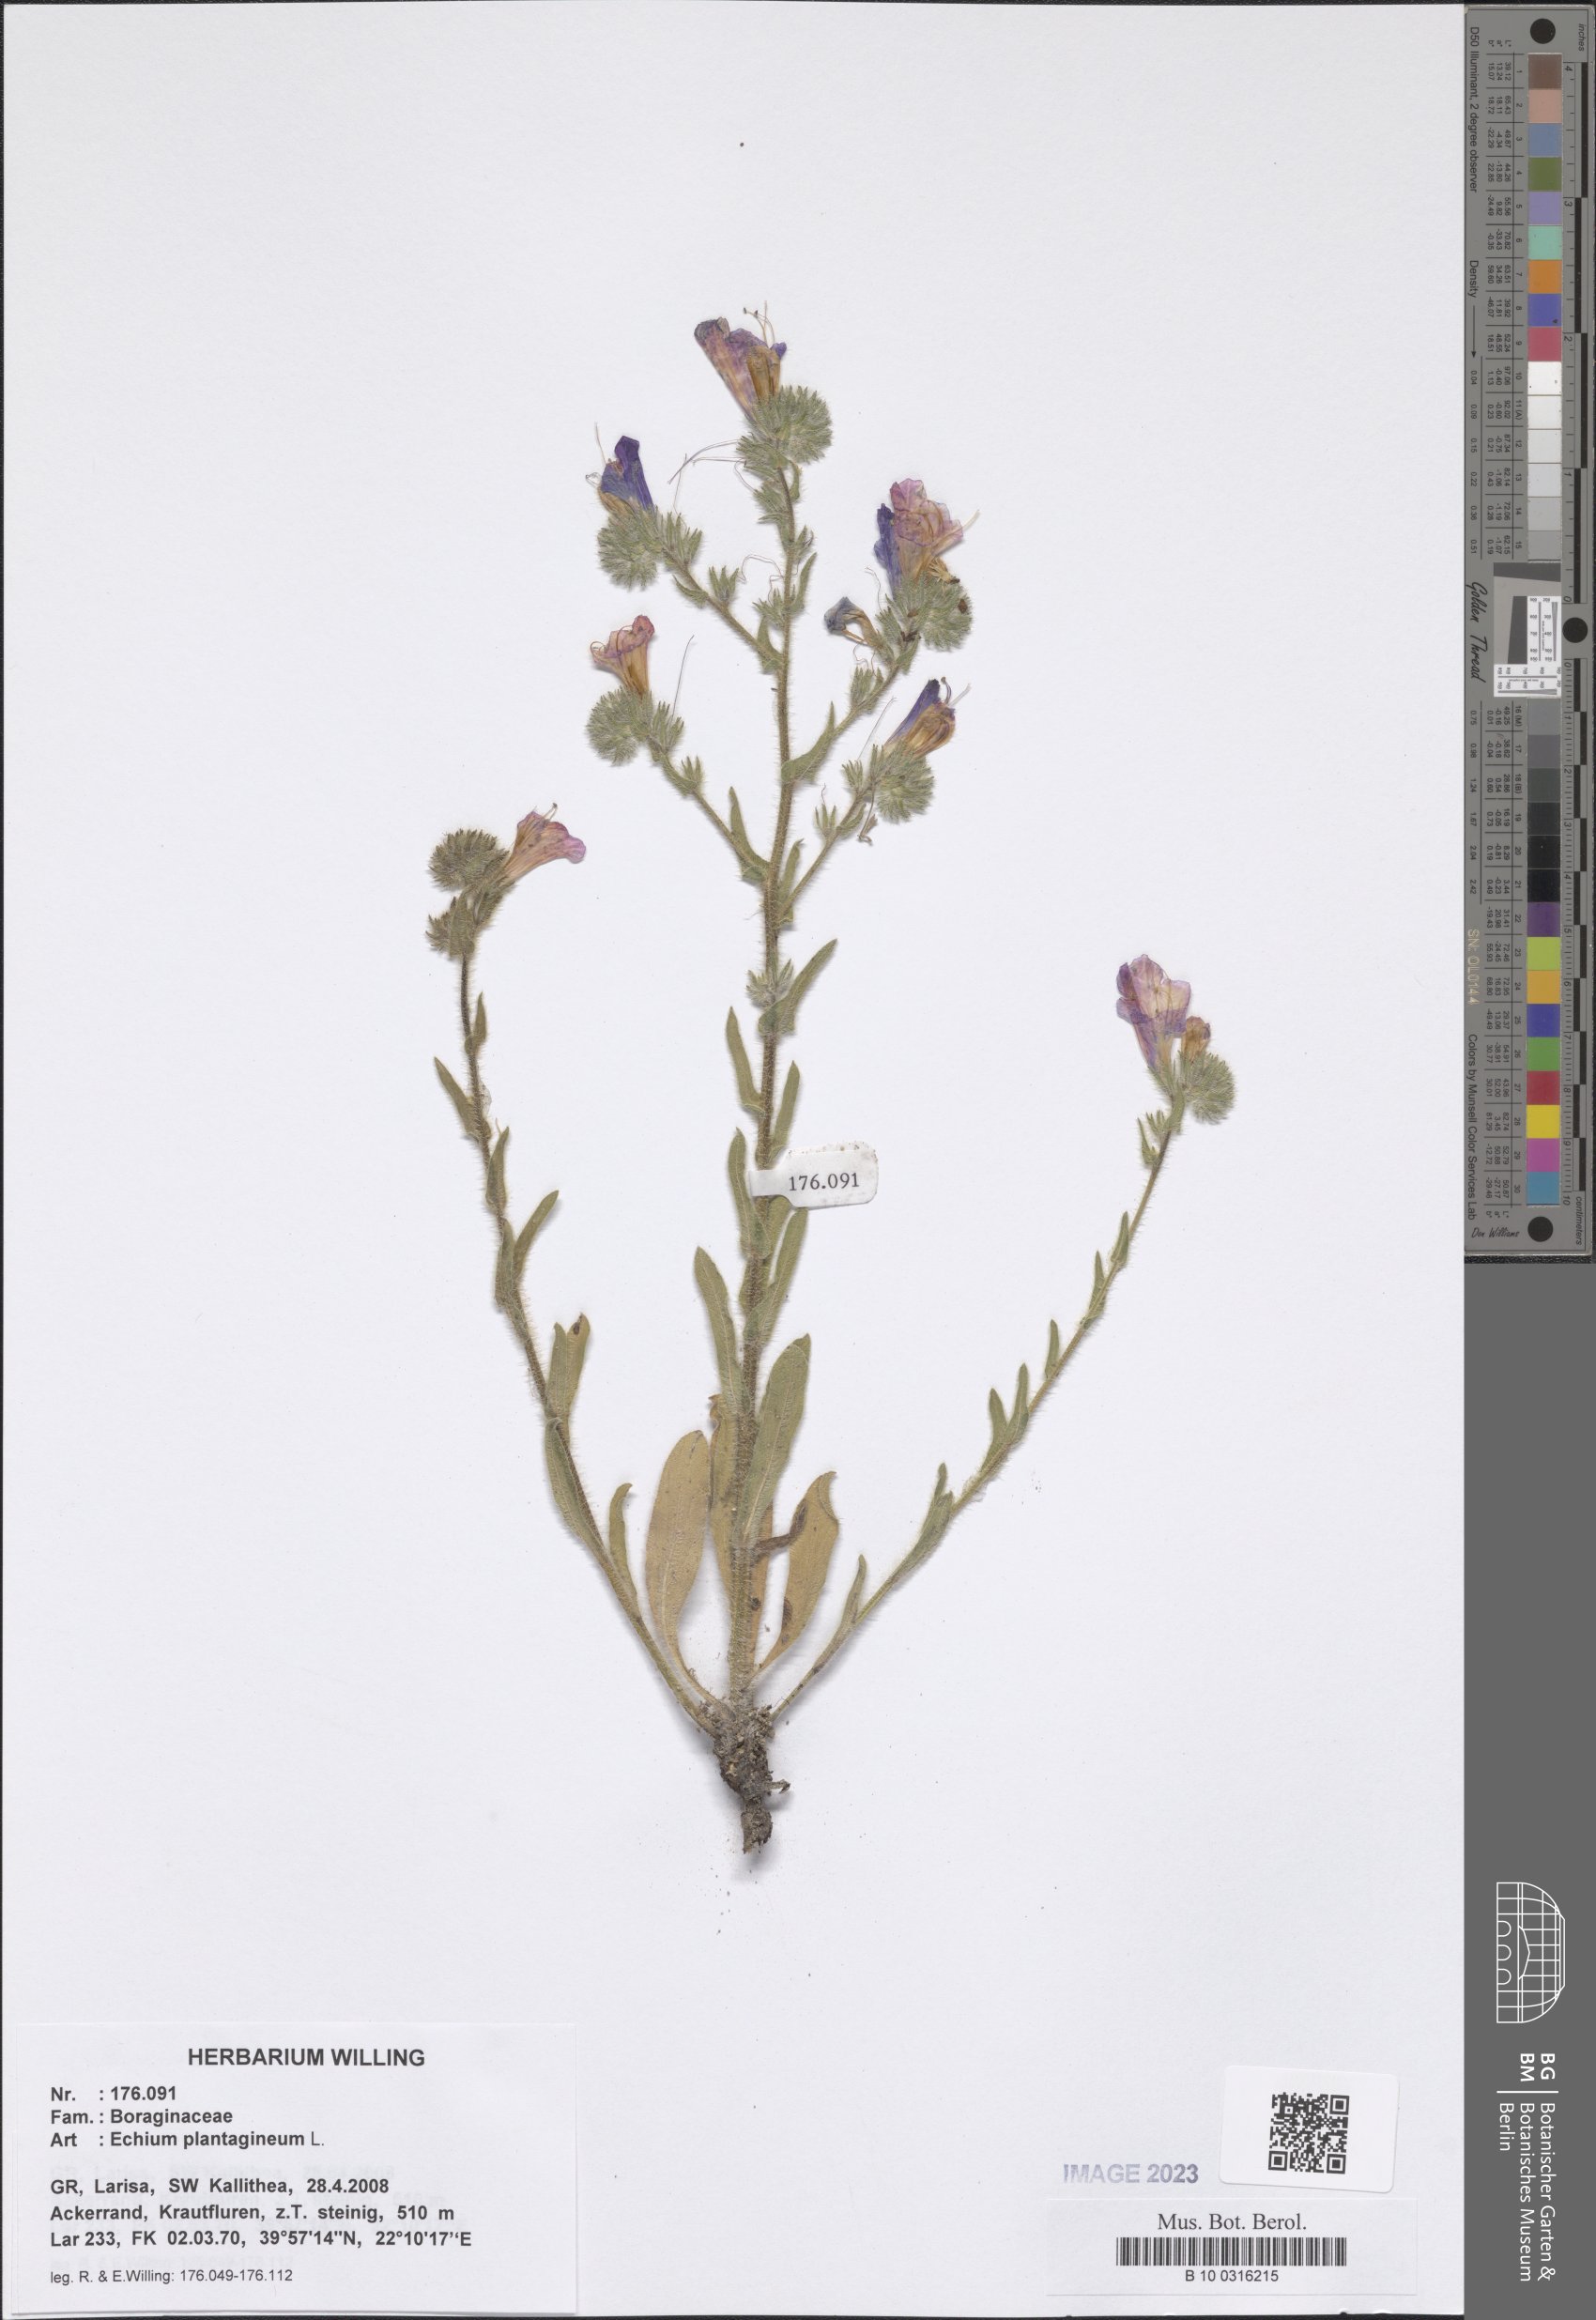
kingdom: Plantae
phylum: Tracheophyta
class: Magnoliopsida
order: Boraginales
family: Boraginaceae
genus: Echium
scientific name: Echium plantagineum
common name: Purple viper's-bugloss
